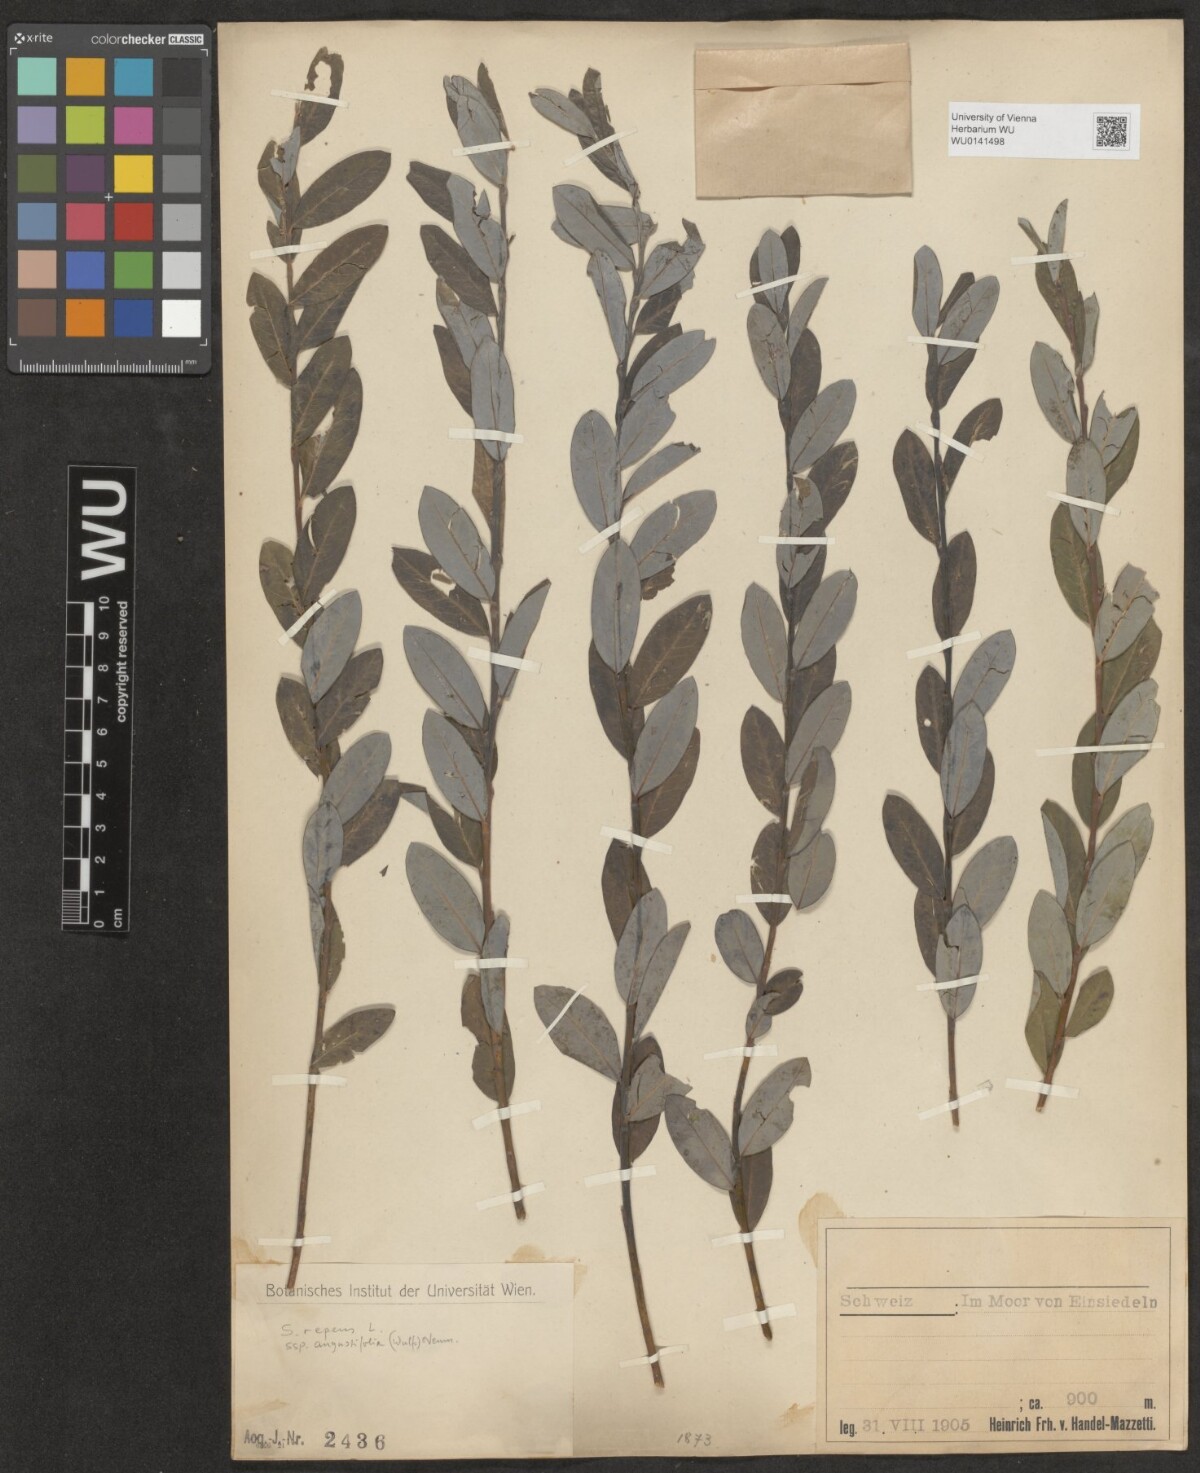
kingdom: Plantae
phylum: Tracheophyta
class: Magnoliopsida
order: Malpighiales
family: Salicaceae
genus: Salix
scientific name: Salix rosmarinifolia
